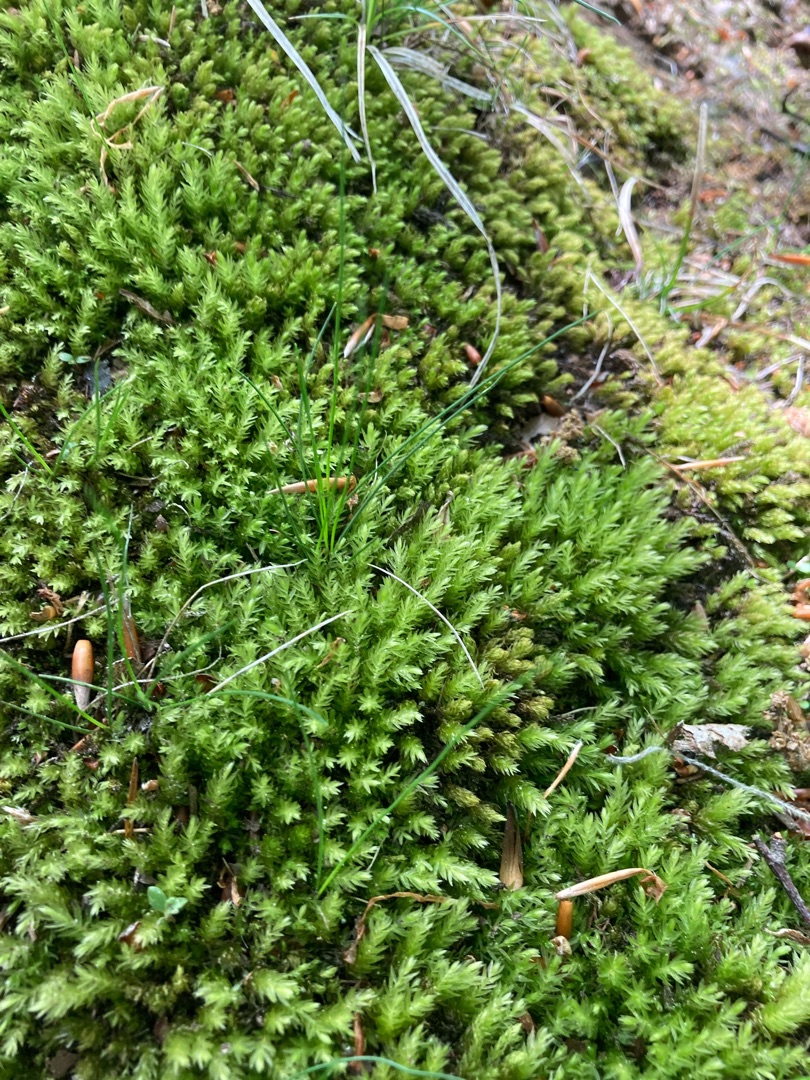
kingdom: Plantae
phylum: Bryophyta
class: Bryopsida
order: Bryales
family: Mniaceae
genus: Mnium
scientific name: Mnium hornum
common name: Brunfiltet stjernemos
